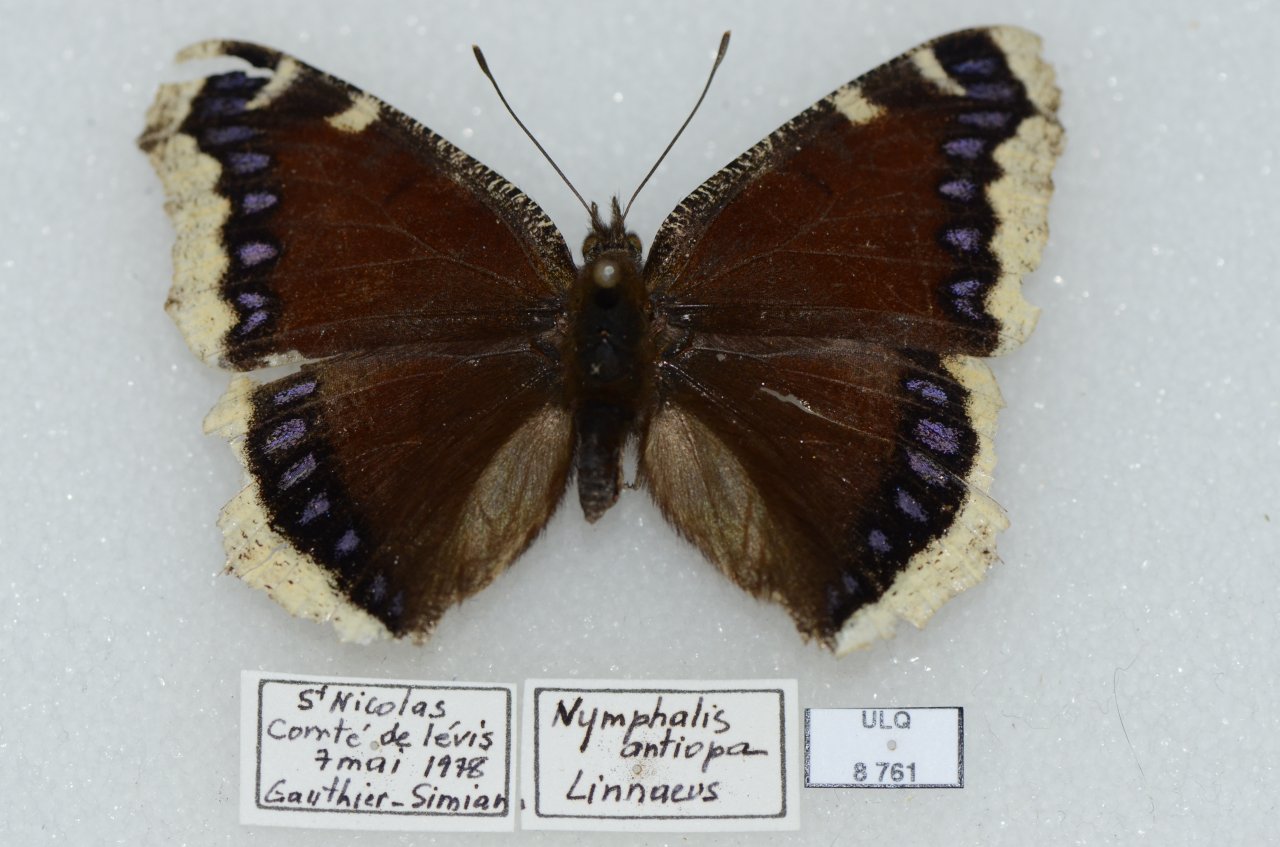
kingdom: Animalia
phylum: Arthropoda
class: Insecta
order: Lepidoptera
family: Nymphalidae
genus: Nymphalis
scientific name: Nymphalis antiopa
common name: Mourning Cloak
